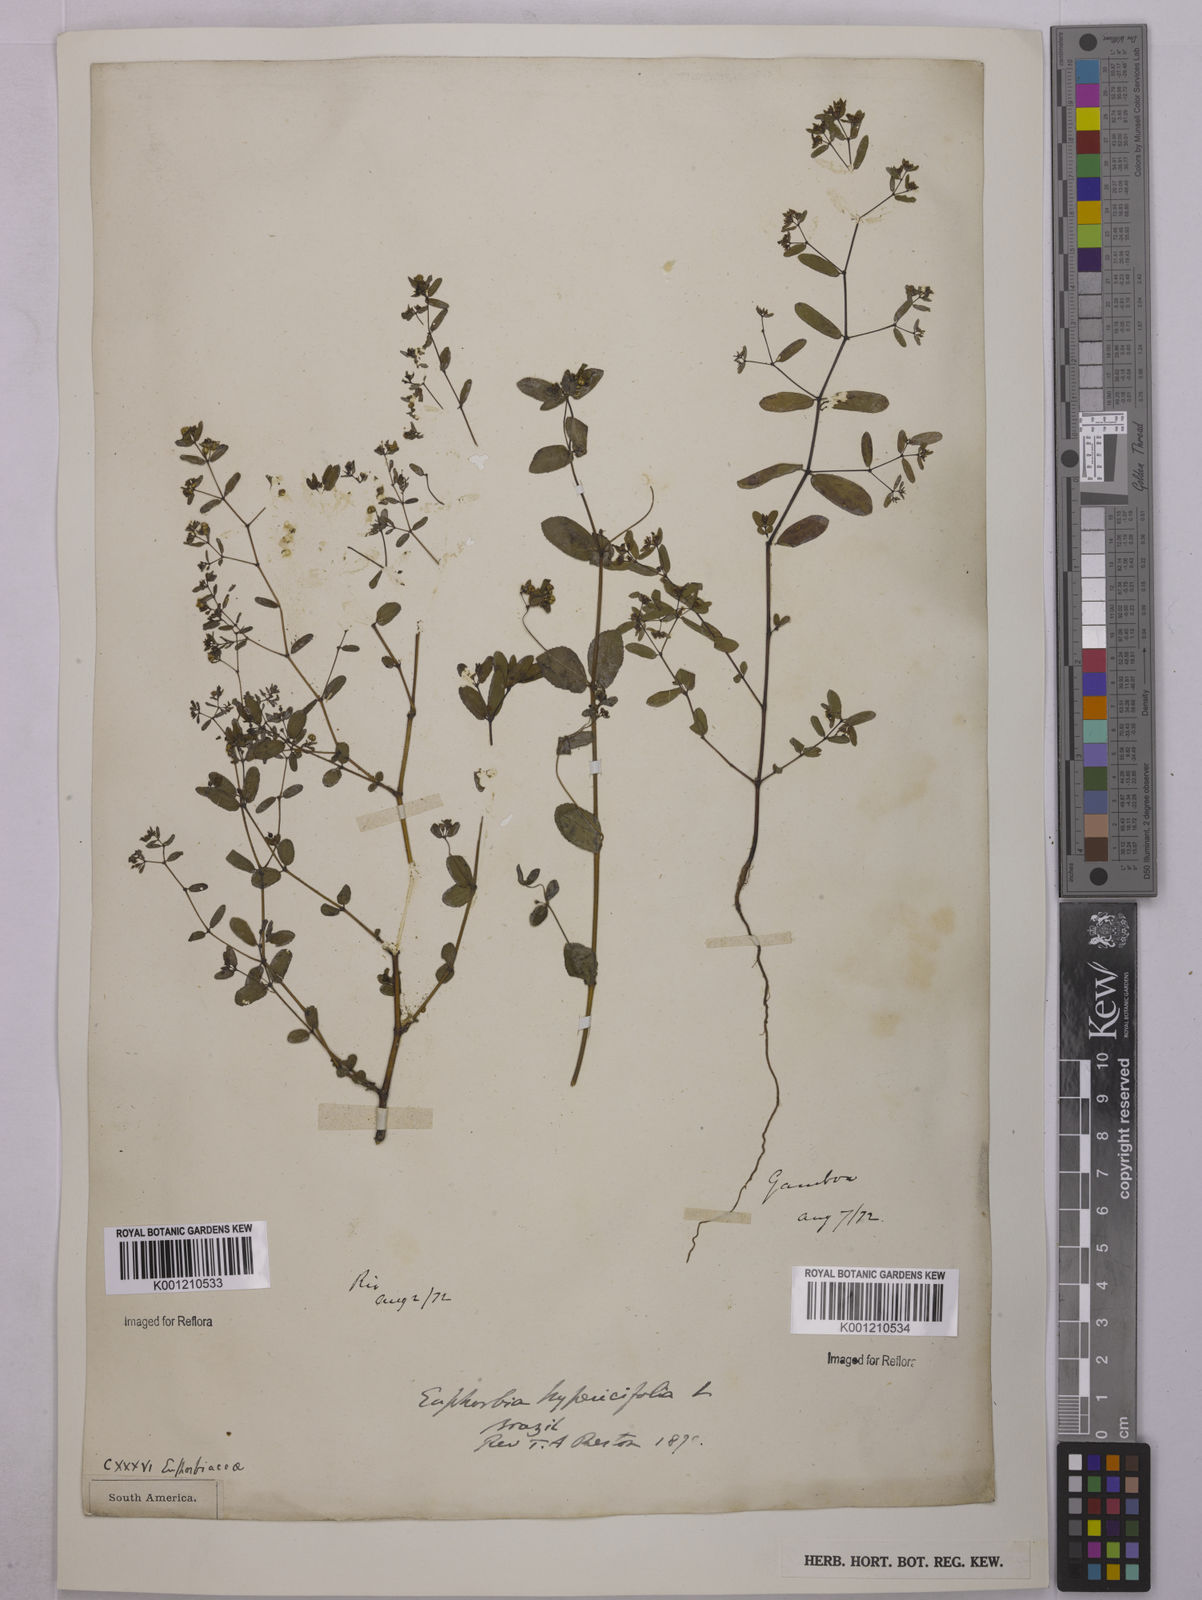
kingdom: Plantae
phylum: Tracheophyta
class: Magnoliopsida
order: Malpighiales
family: Euphorbiaceae
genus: Euphorbia
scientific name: Euphorbia hypericifolia
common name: Graceful sandmat
